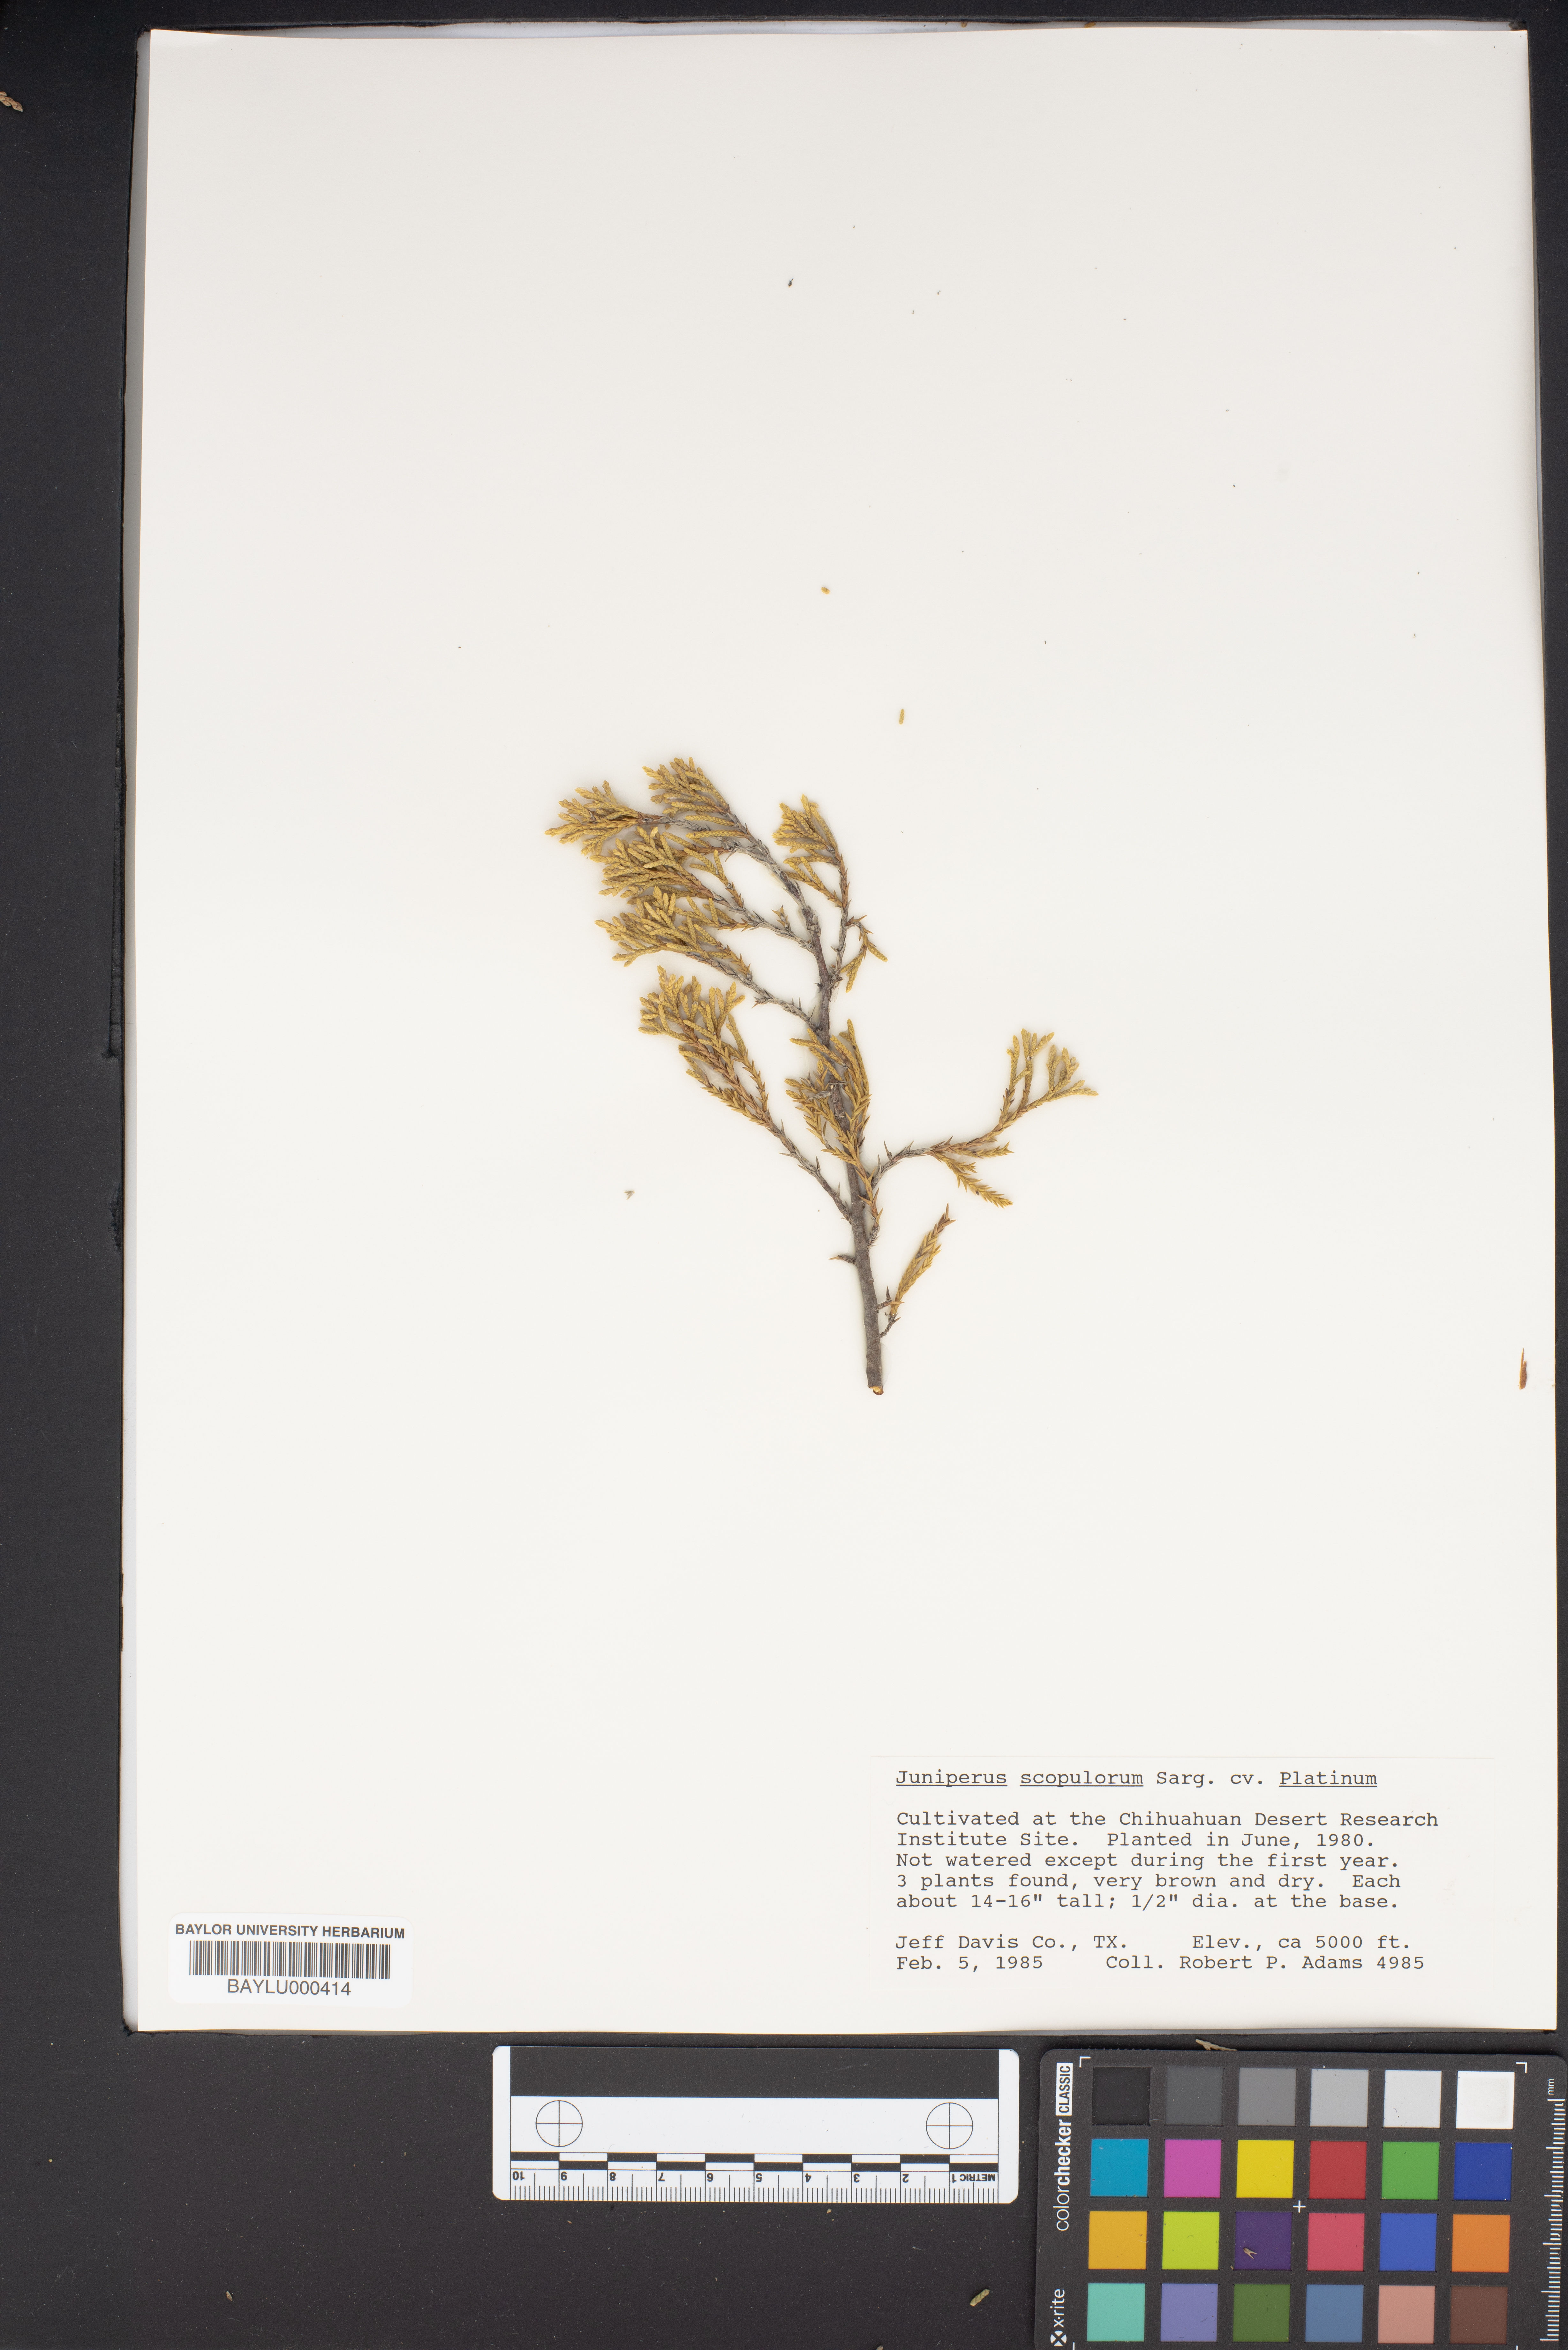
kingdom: Plantae
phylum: Tracheophyta
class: Pinopsida
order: Pinales
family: Cupressaceae
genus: Juniperus
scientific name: Juniperus scopulorum
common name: Rocky mountain juniper
